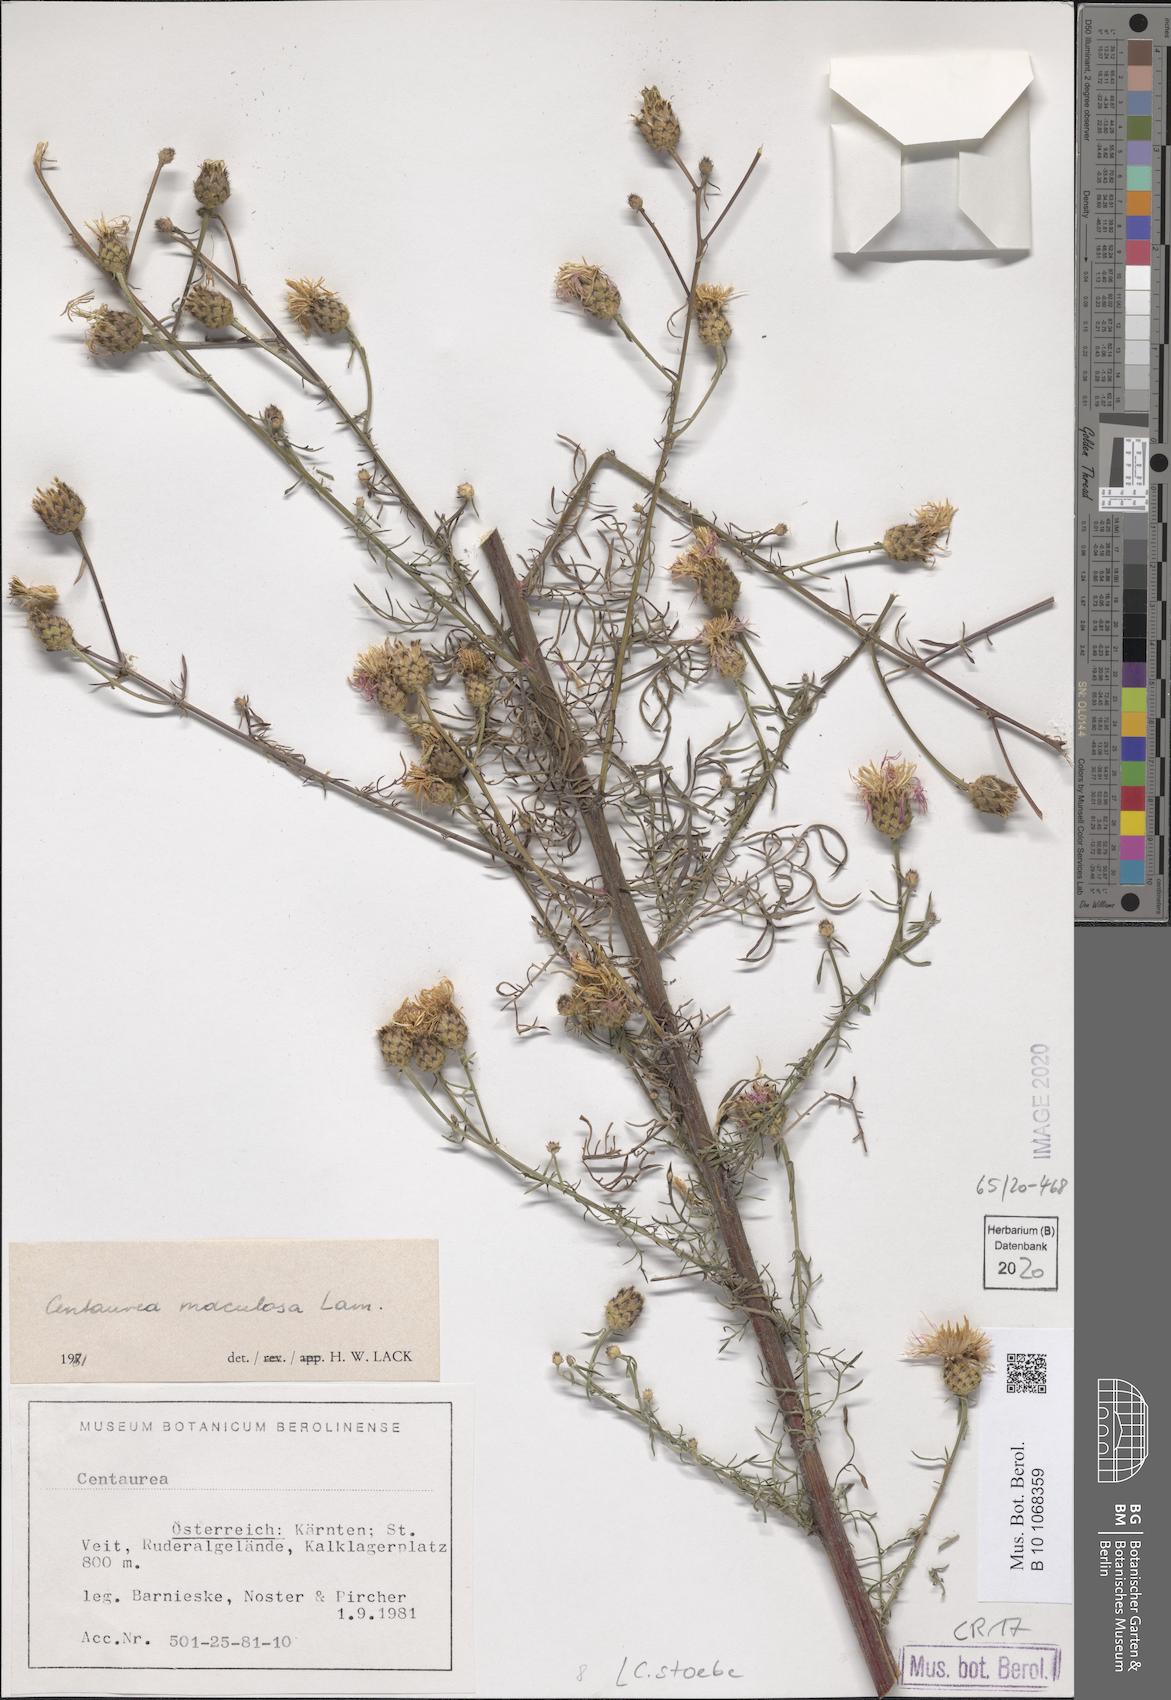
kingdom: Plantae
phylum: Tracheophyta
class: Magnoliopsida
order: Asterales
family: Asteraceae
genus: Centaurea
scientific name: Centaurea stoebe
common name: Spotted knapweed
